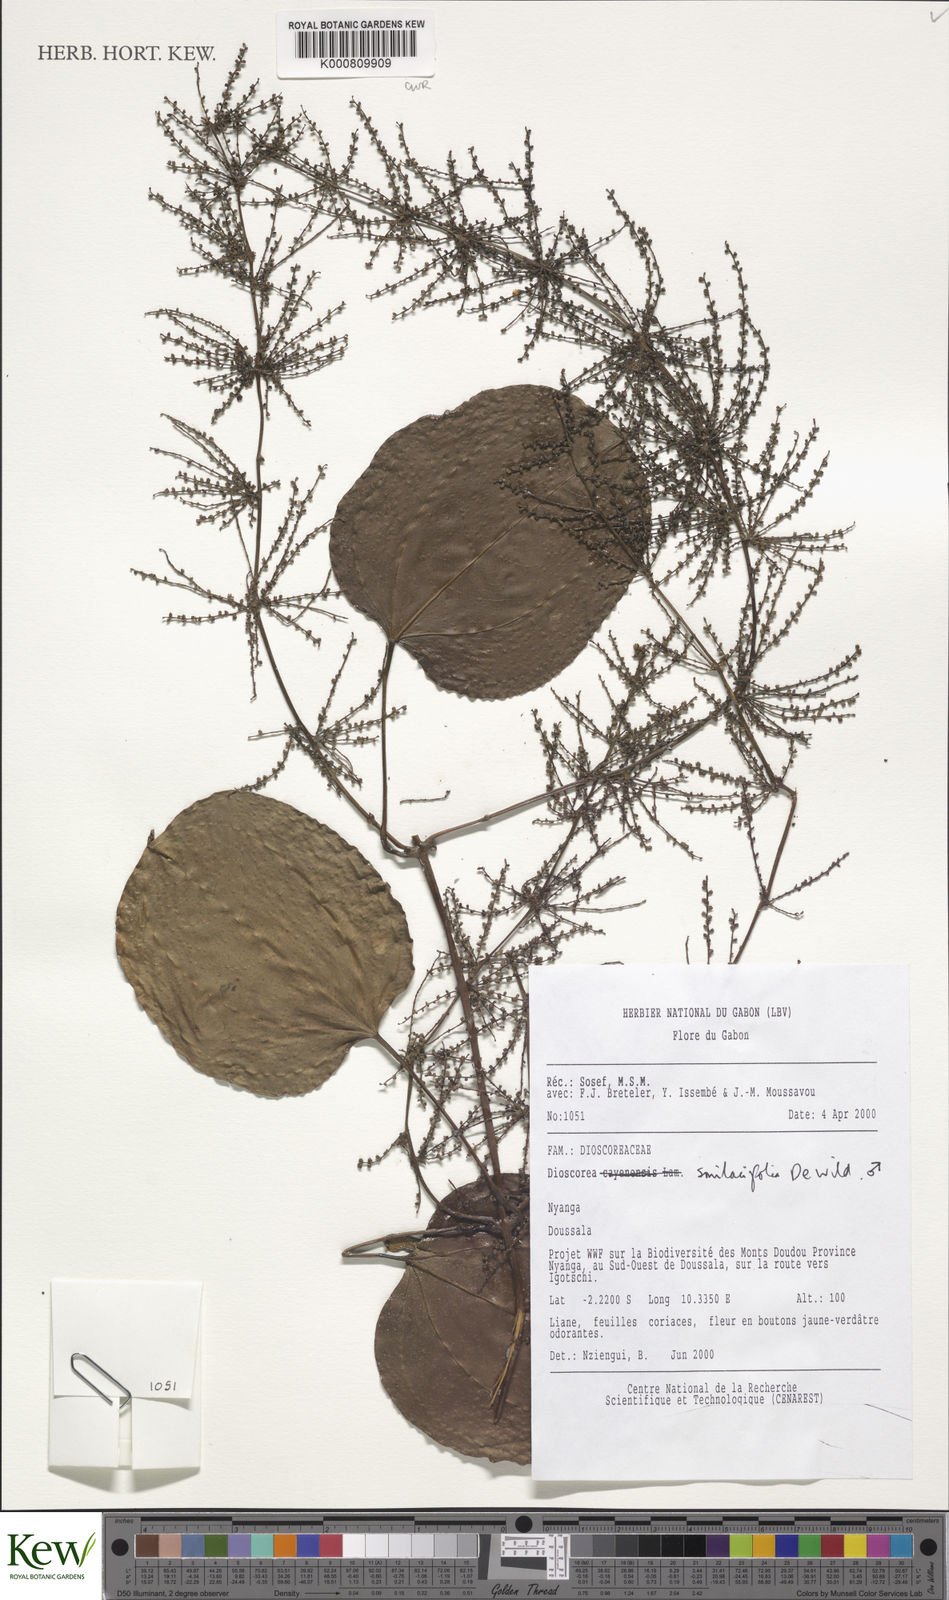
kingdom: Plantae
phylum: Tracheophyta
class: Liliopsida
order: Dioscoreales
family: Dioscoreaceae
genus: Dioscorea
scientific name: Dioscorea smilacifolia
